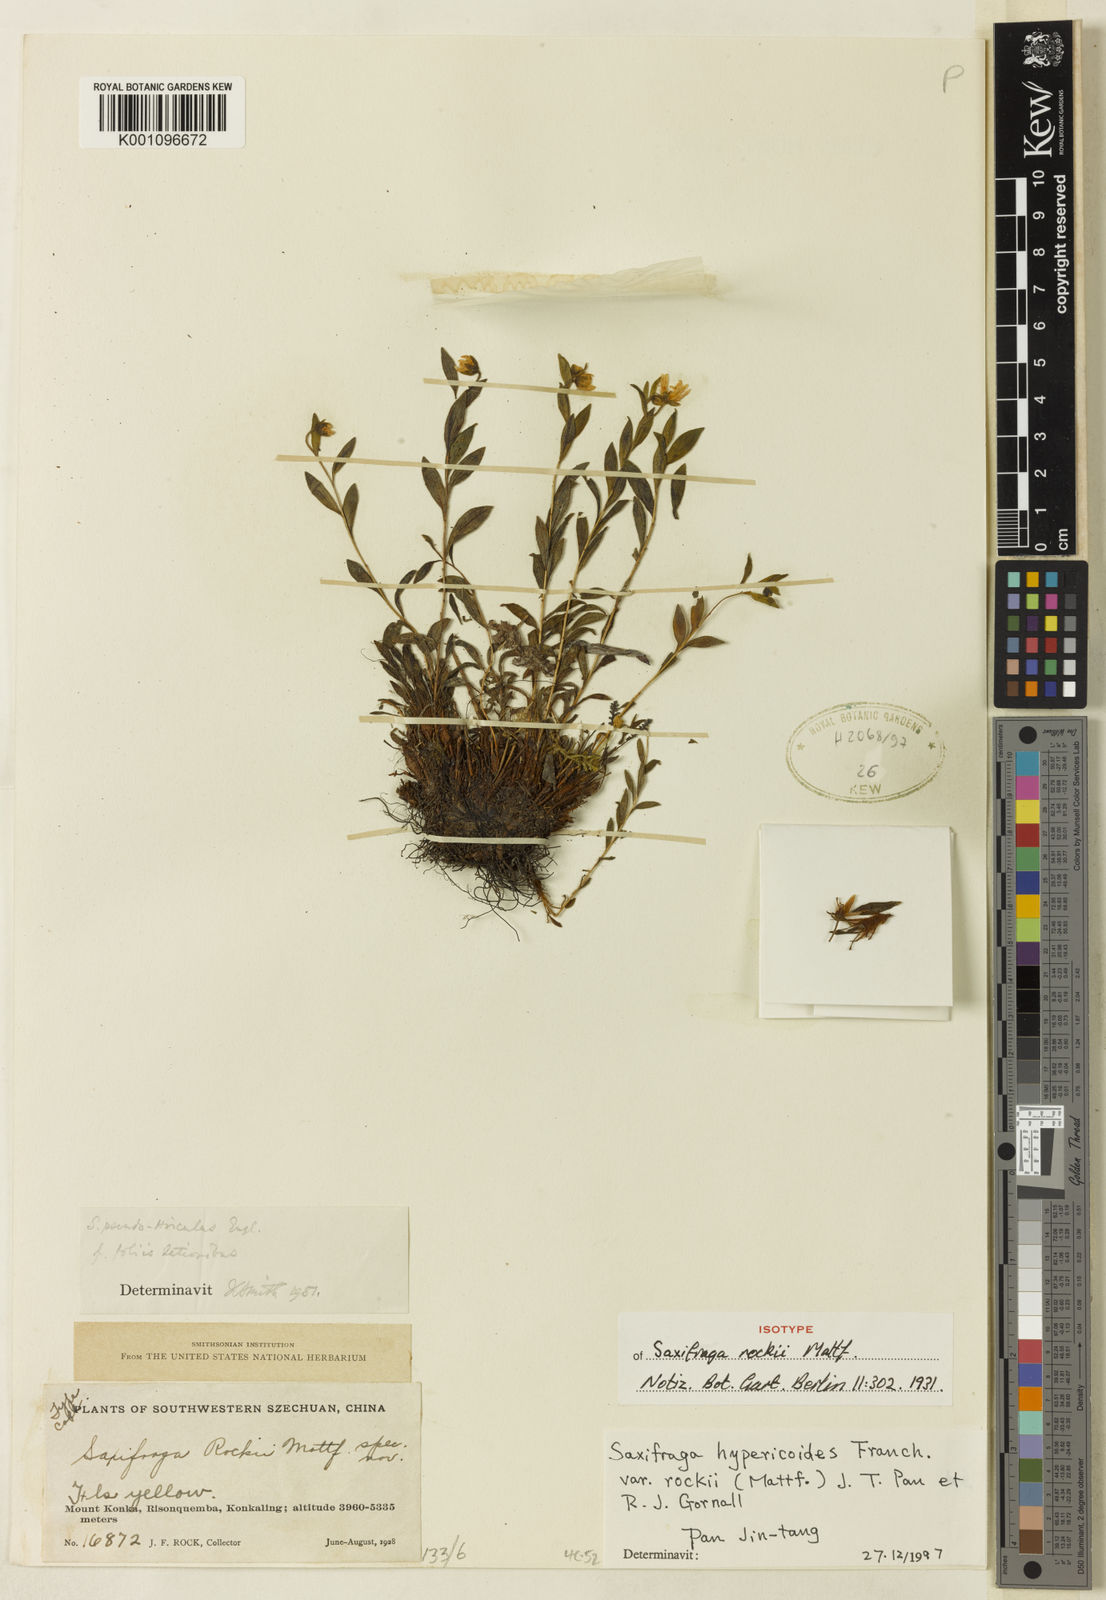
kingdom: Plantae
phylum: Tracheophyta
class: Magnoliopsida
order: Saxifragales
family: Saxifragaceae
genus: Saxifraga
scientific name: Saxifraga hypericoides
